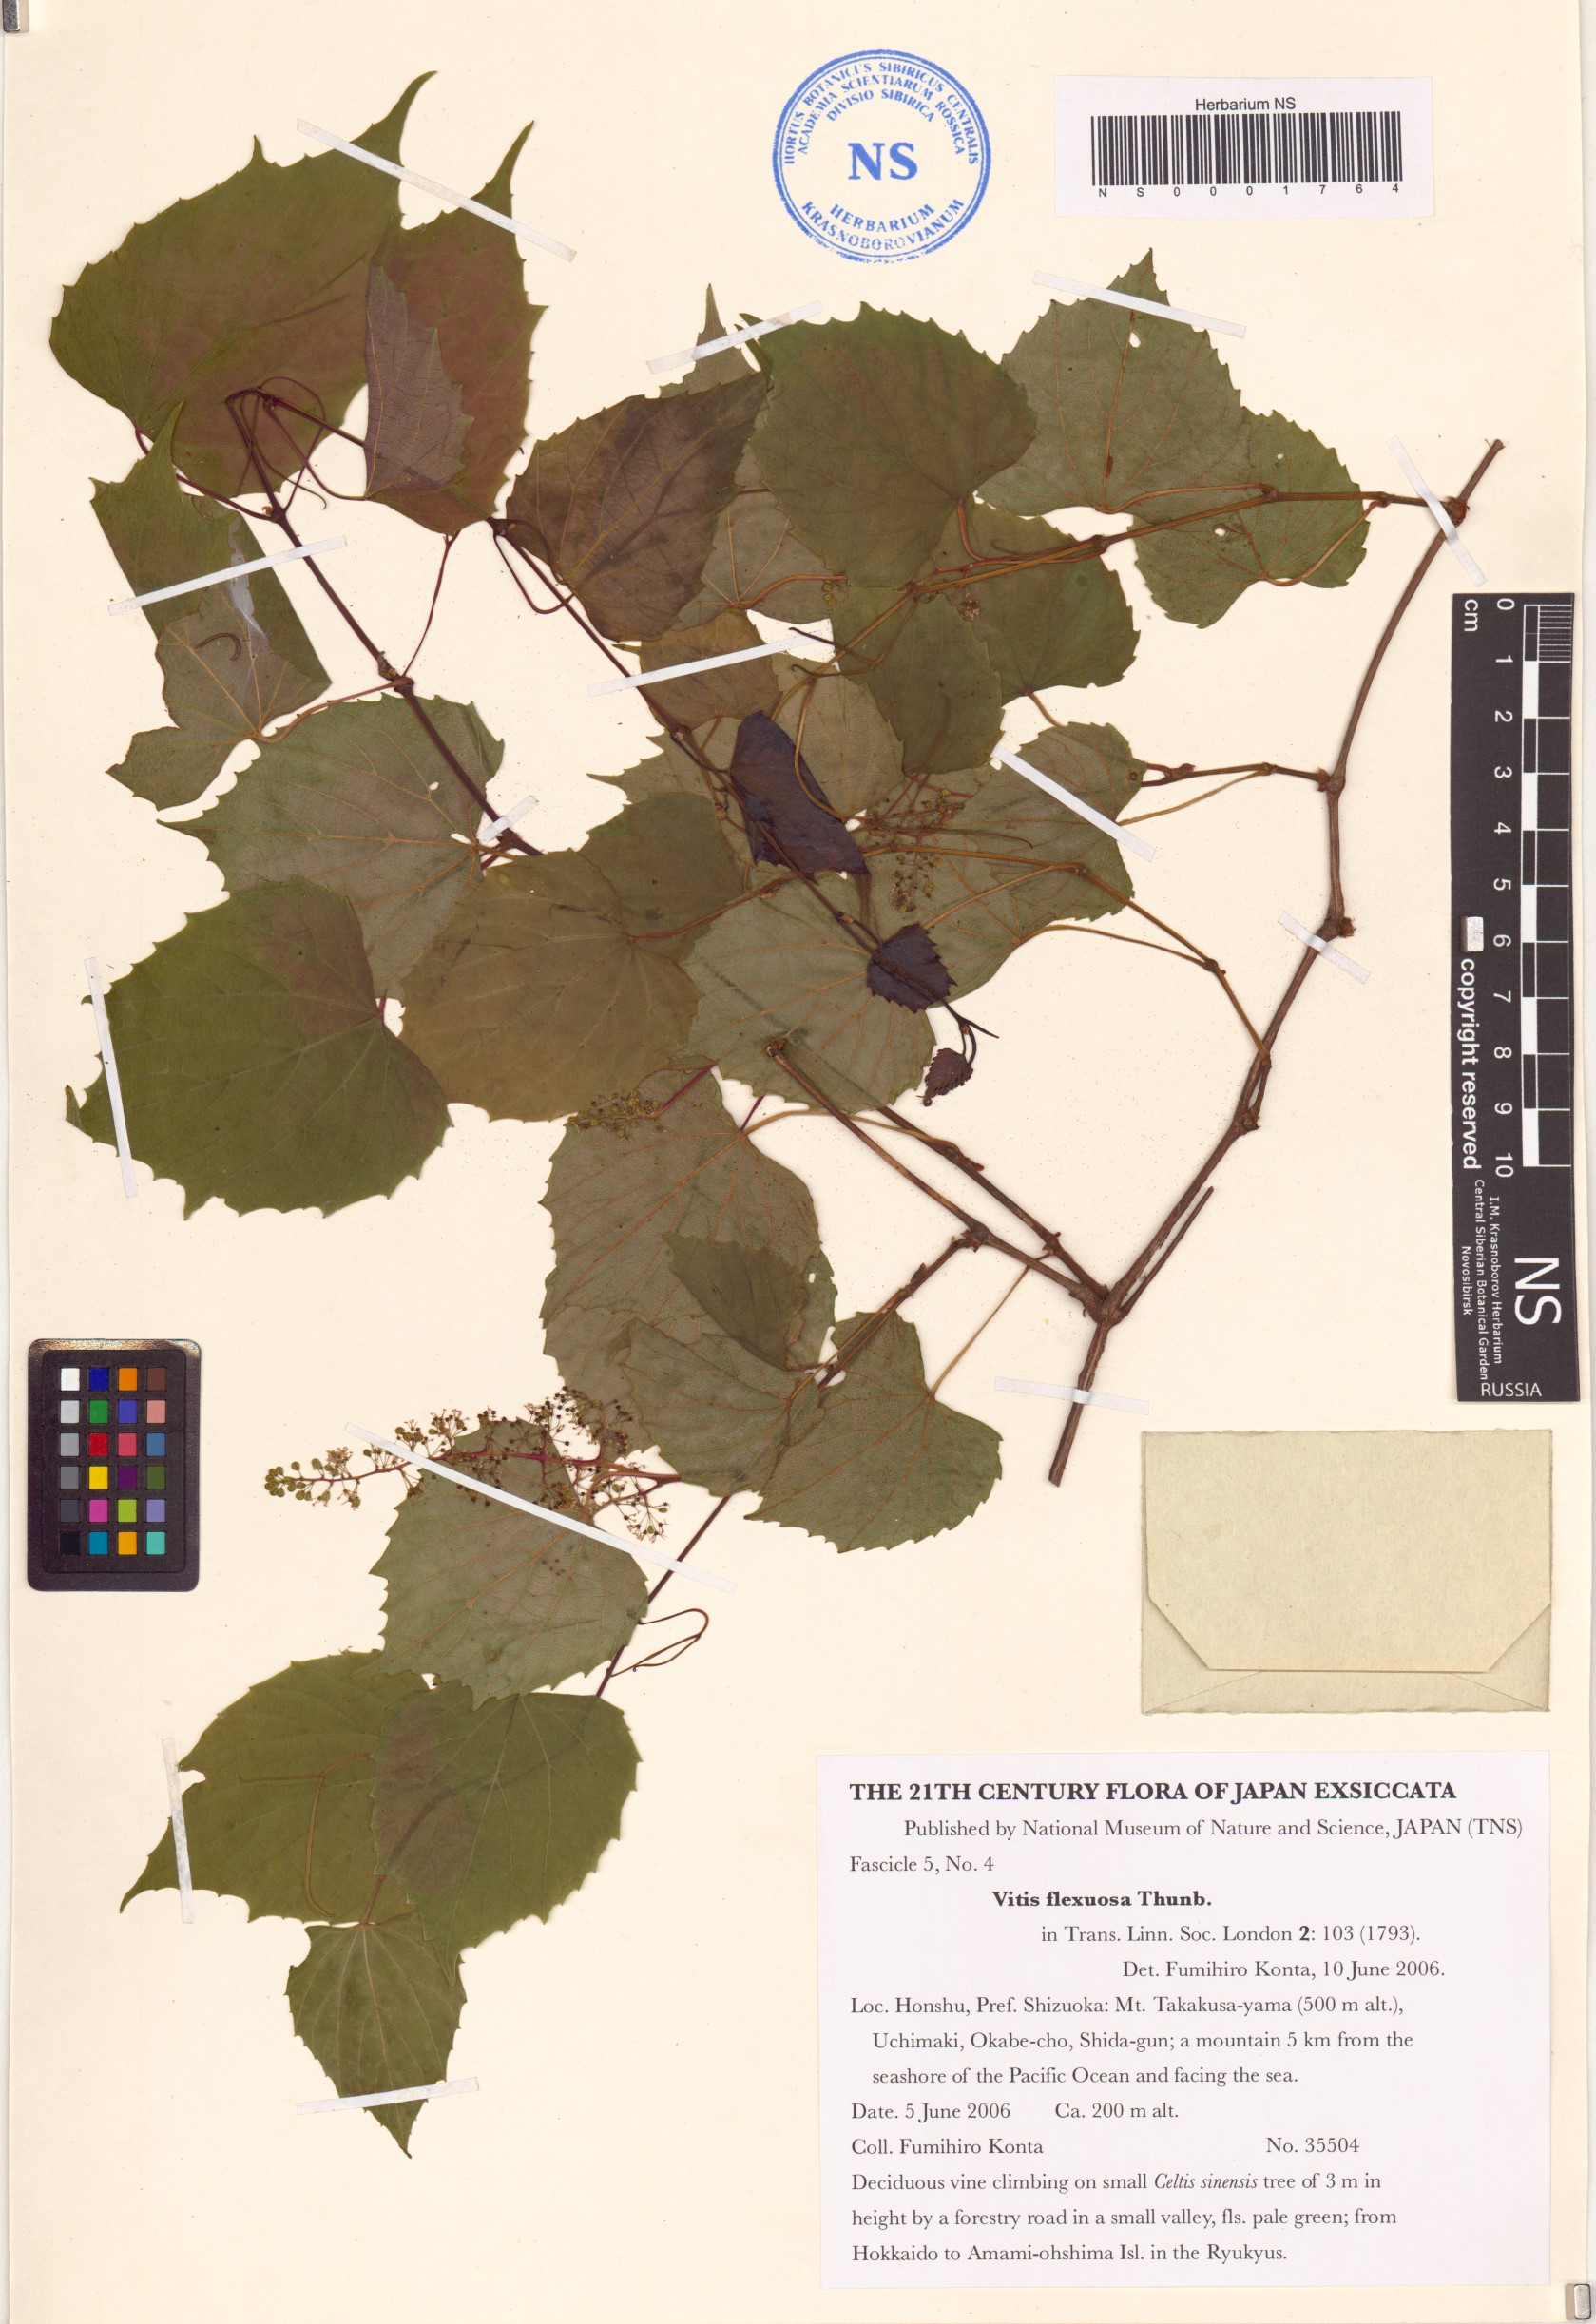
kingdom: Plantae
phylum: Tracheophyta
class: Magnoliopsida
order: Vitales
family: Vitaceae
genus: Vitis
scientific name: Vitis flexuosa
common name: Creeping grape
